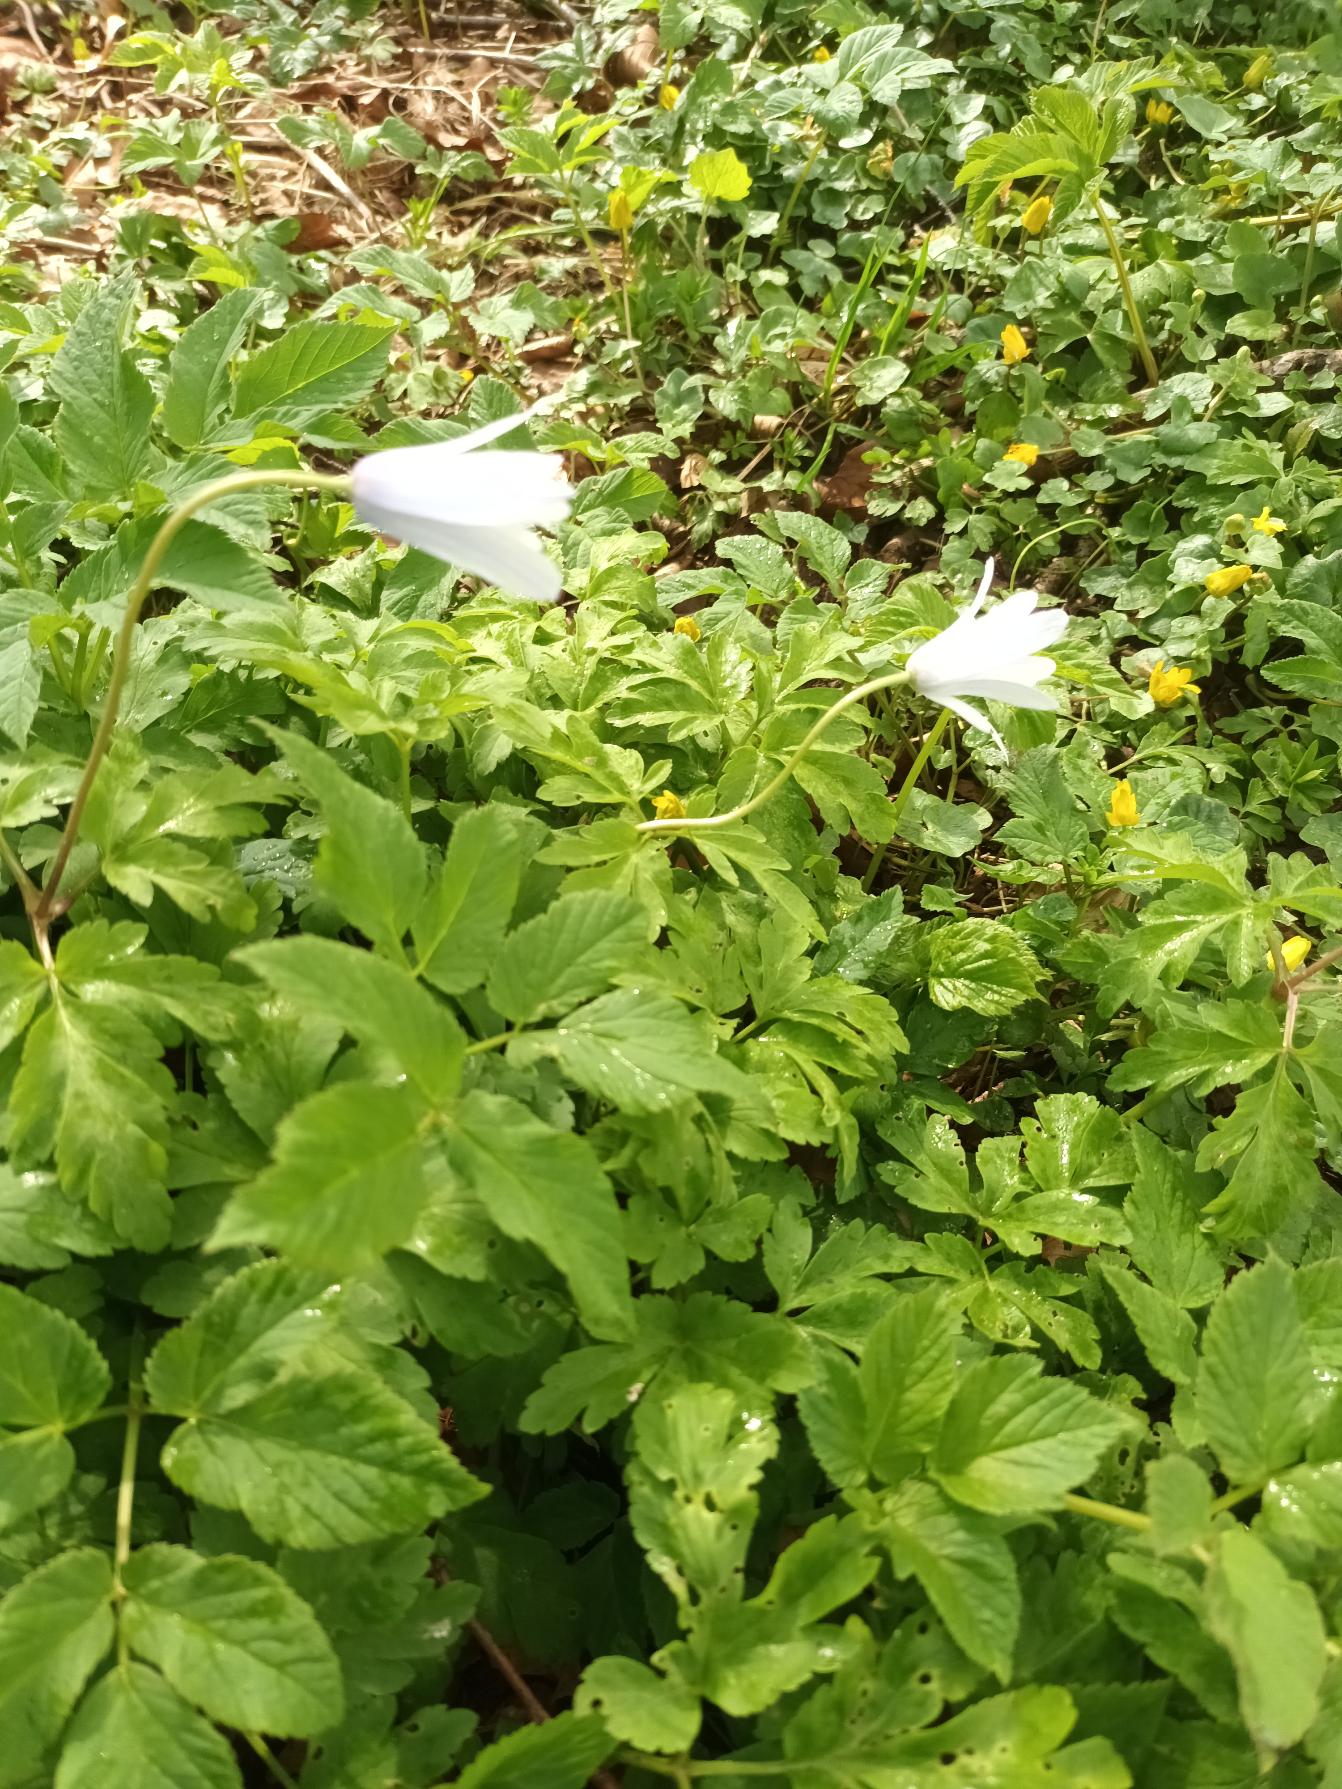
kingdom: Plantae
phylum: Tracheophyta
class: Magnoliopsida
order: Ranunculales
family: Ranunculaceae
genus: Anemone
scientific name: Anemone apennina
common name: Apenniner-anemone
